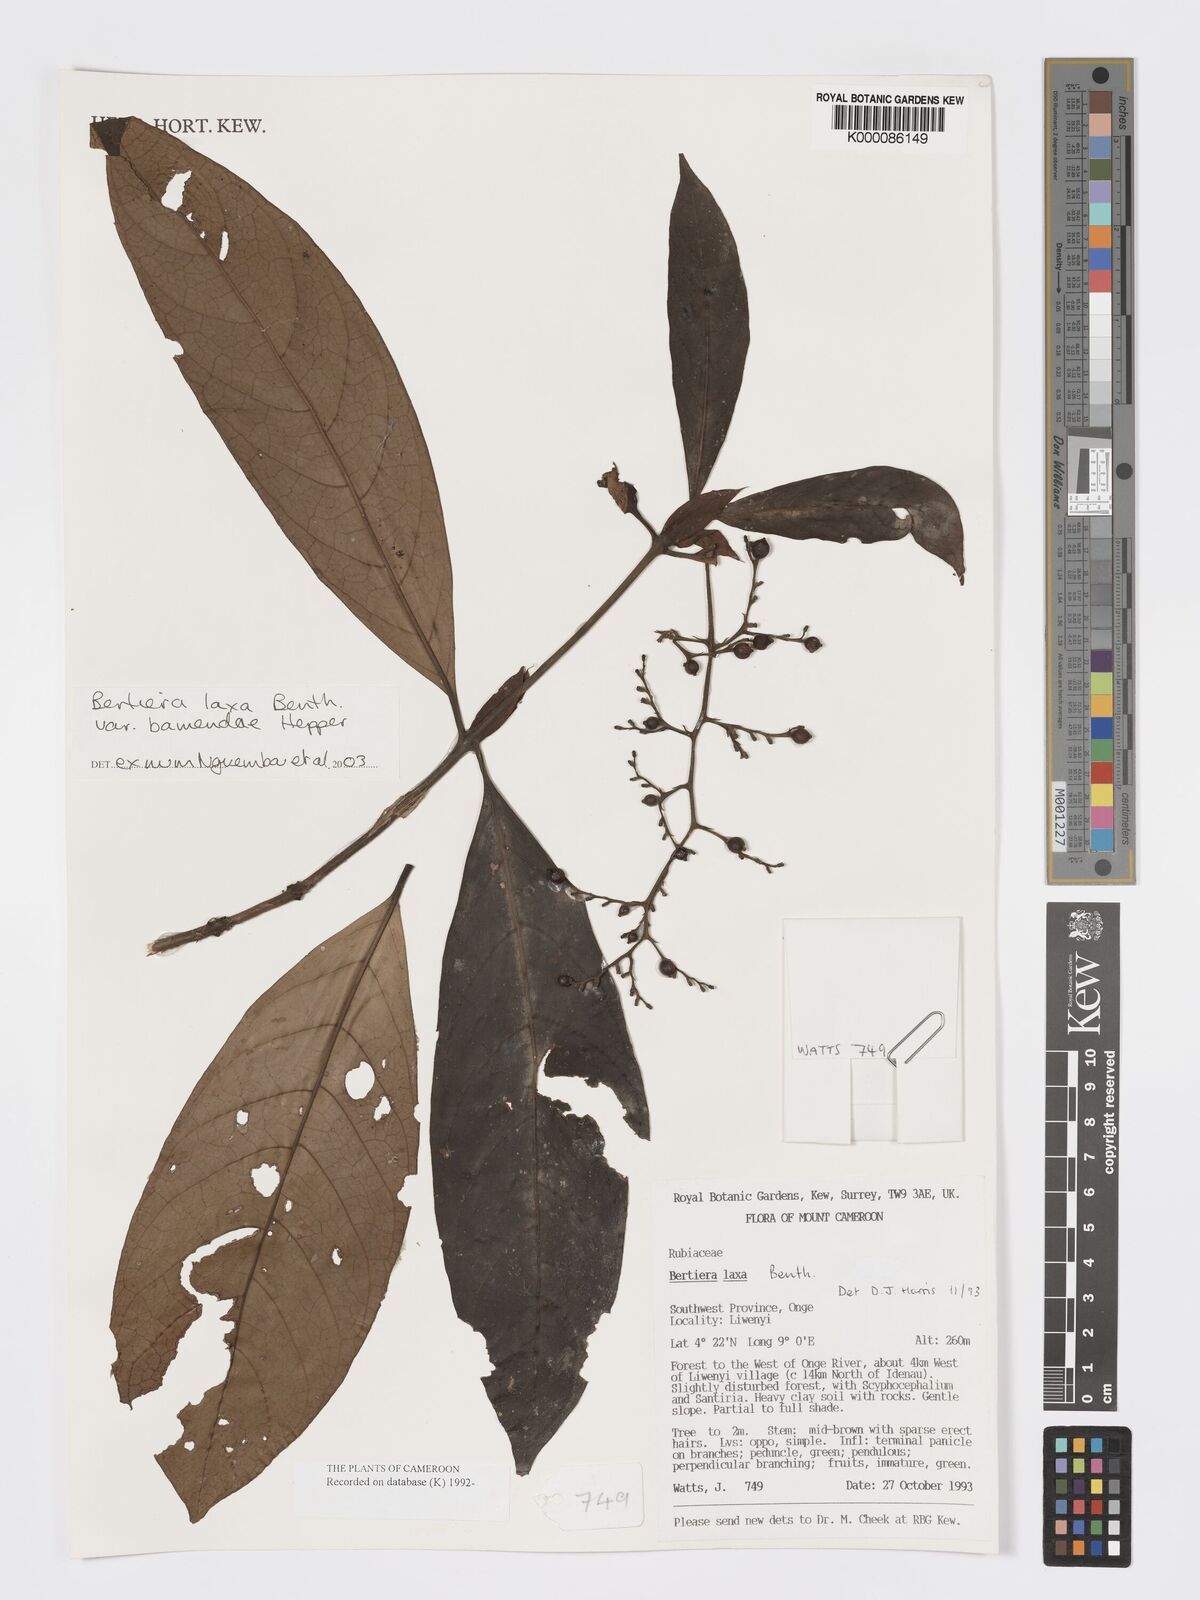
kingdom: Plantae
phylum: Tracheophyta
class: Magnoliopsida
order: Gentianales
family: Rubiaceae
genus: Bertiera
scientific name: Bertiera laxa
